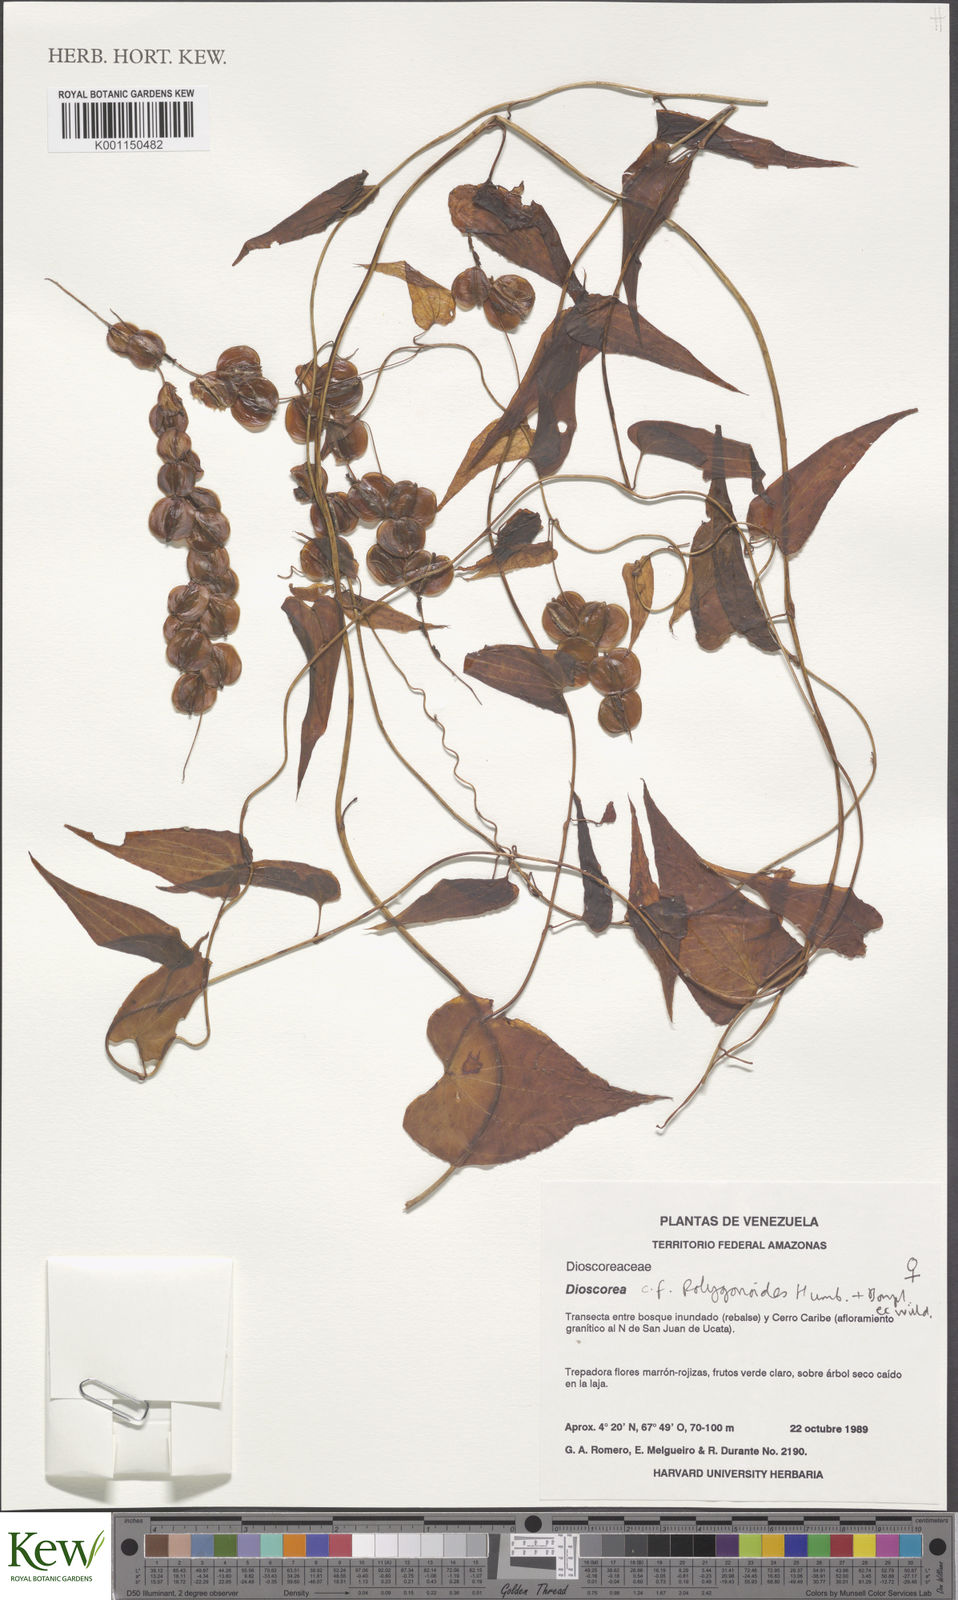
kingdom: Plantae
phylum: Tracheophyta
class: Liliopsida
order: Dioscoreales
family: Dioscoreaceae
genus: Dioscorea
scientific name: Dioscorea polygonoides
